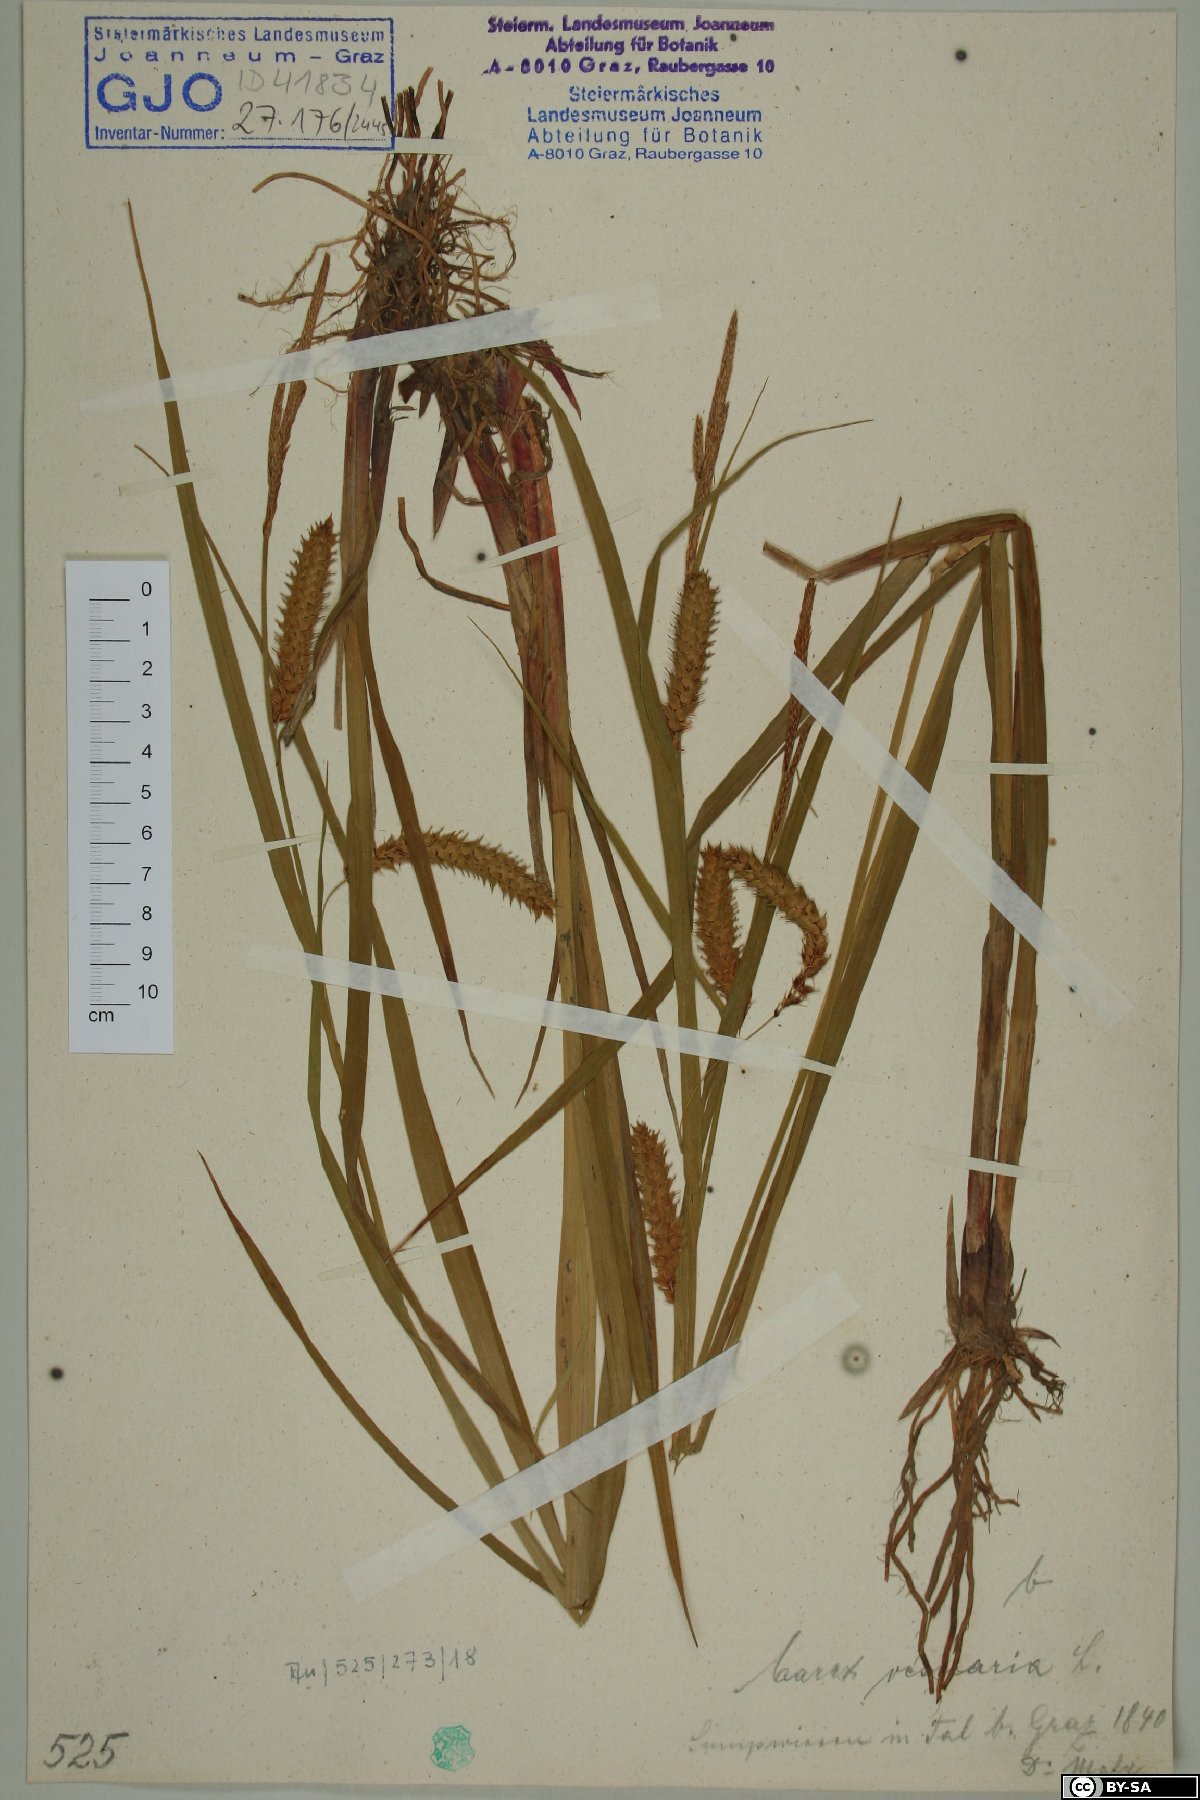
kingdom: Plantae
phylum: Tracheophyta
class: Liliopsida
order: Poales
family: Cyperaceae
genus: Carex
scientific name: Carex vesicaria
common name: Bladder-sedge
